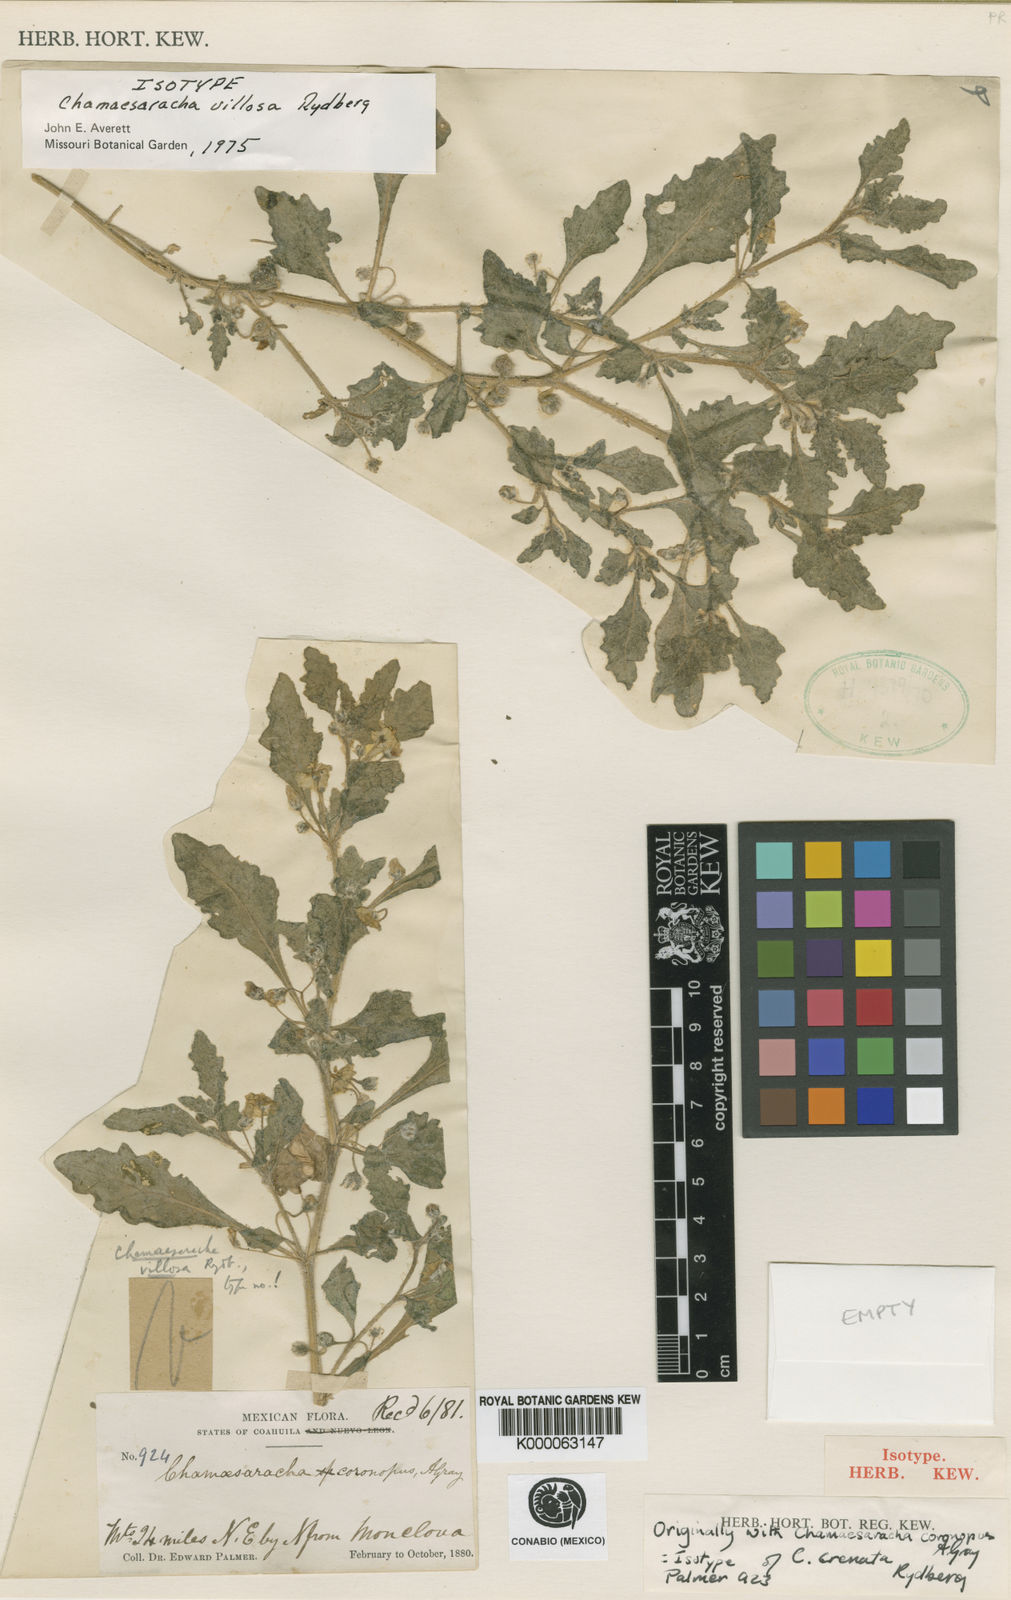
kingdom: Plantae
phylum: Tracheophyta
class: Magnoliopsida
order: Solanales
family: Solanaceae
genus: Chamaesaracha
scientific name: Chamaesaracha villosa
